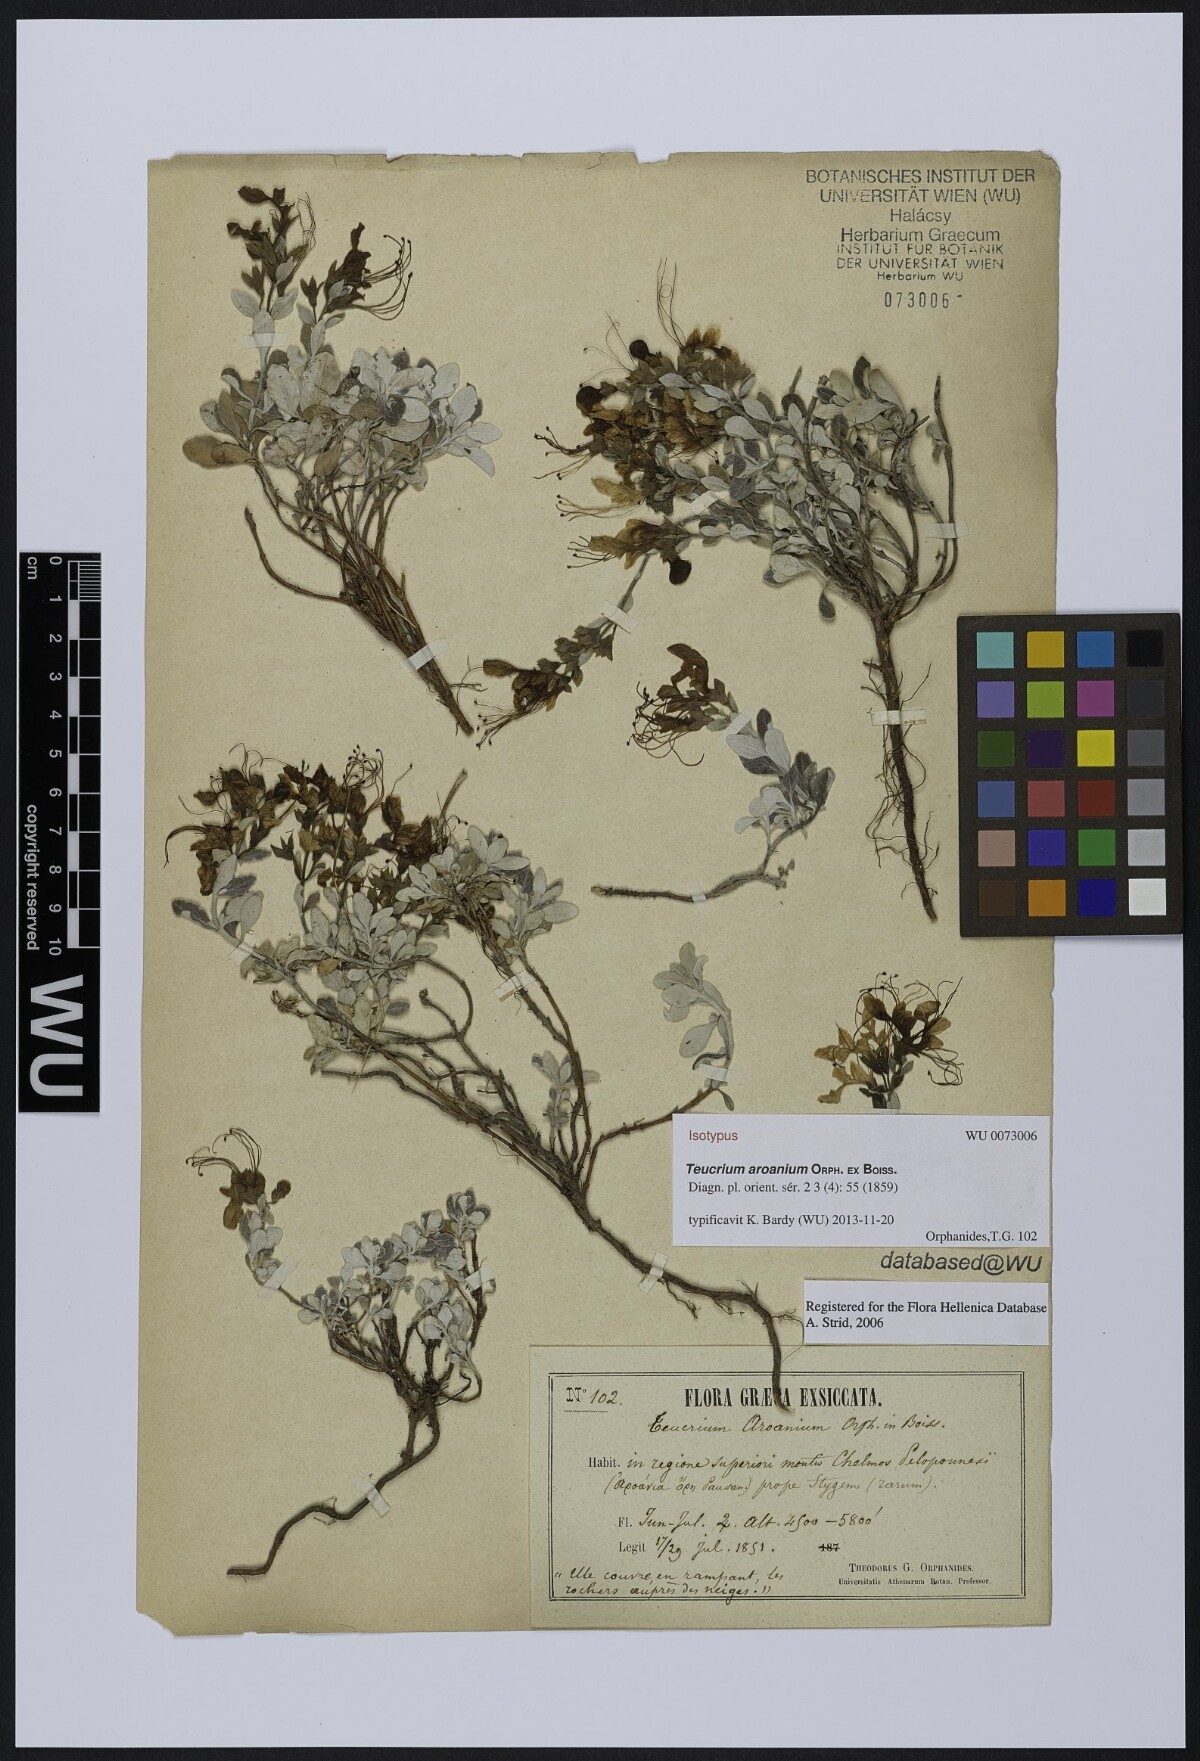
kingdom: Plantae
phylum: Tracheophyta
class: Magnoliopsida
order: Lamiales
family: Lamiaceae
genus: Teucrium
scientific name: Teucrium aroanium
